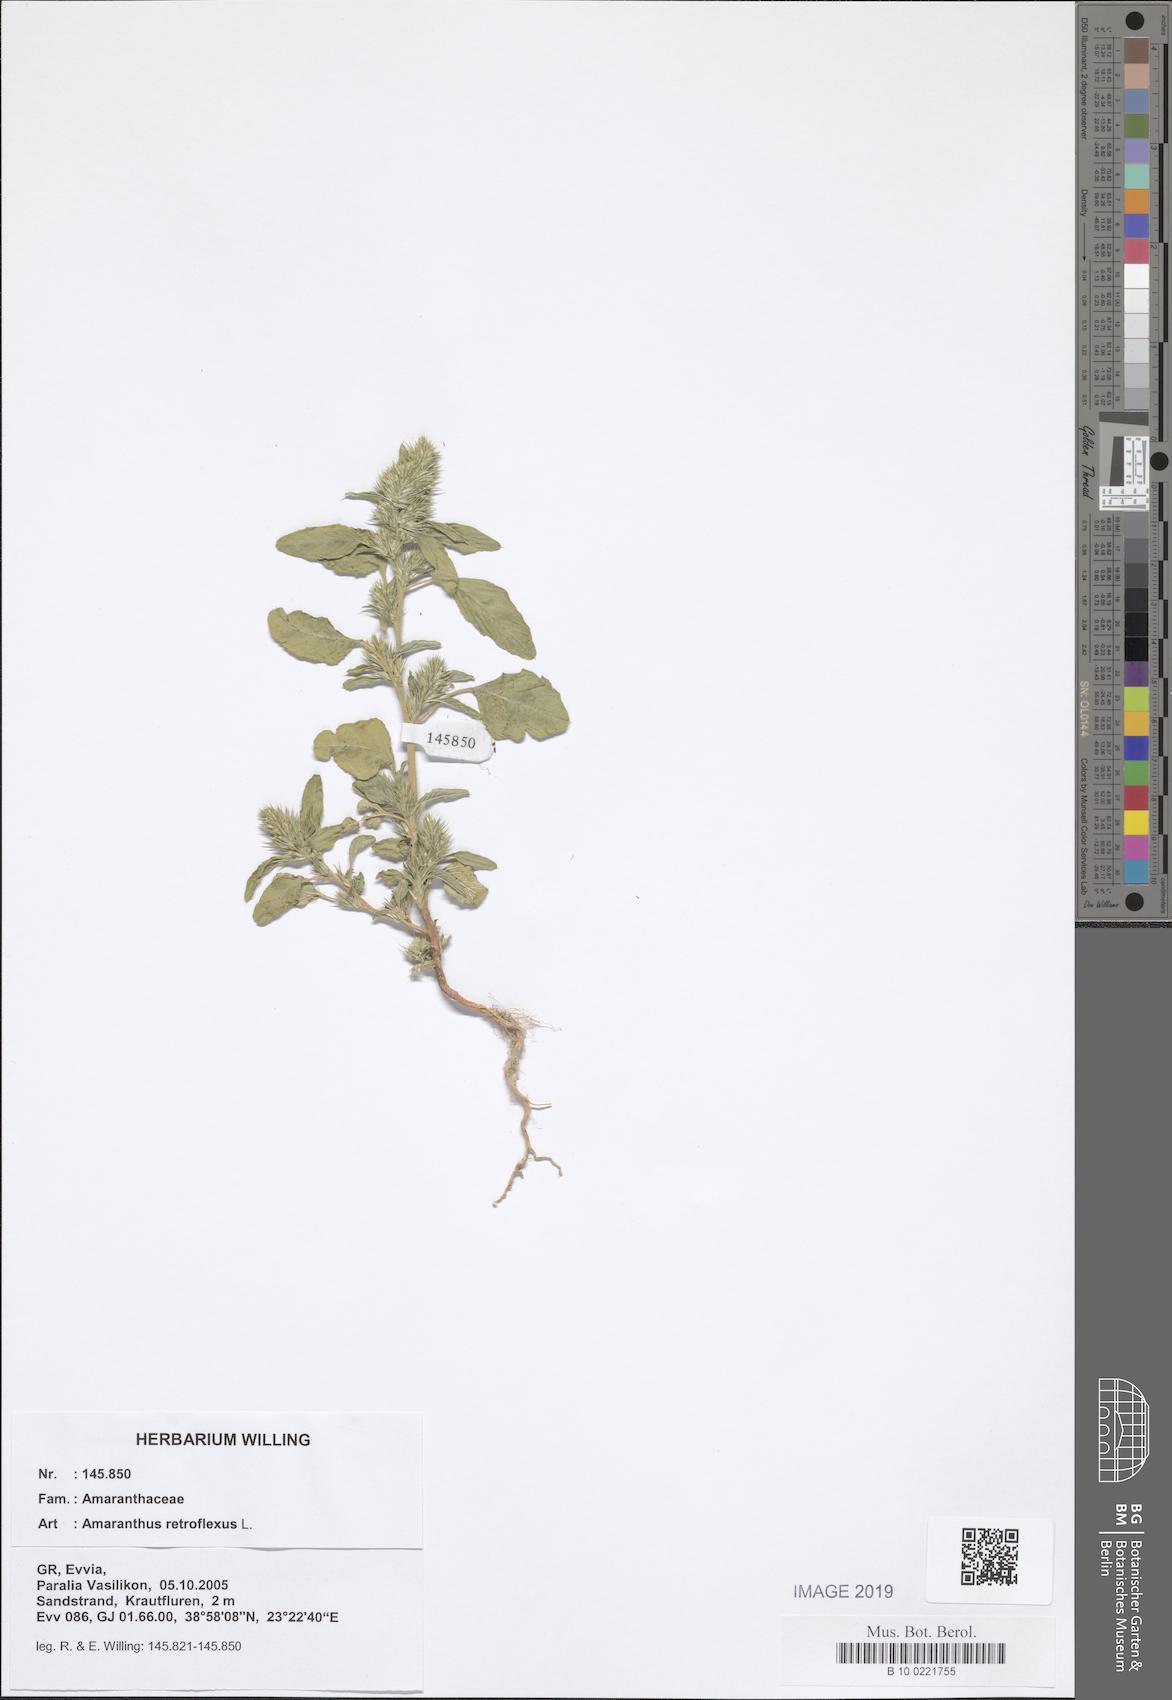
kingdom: Plantae
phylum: Tracheophyta
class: Magnoliopsida
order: Caryophyllales
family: Amaranthaceae
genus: Amaranthus
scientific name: Amaranthus retroflexus
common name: Redroot amaranth
